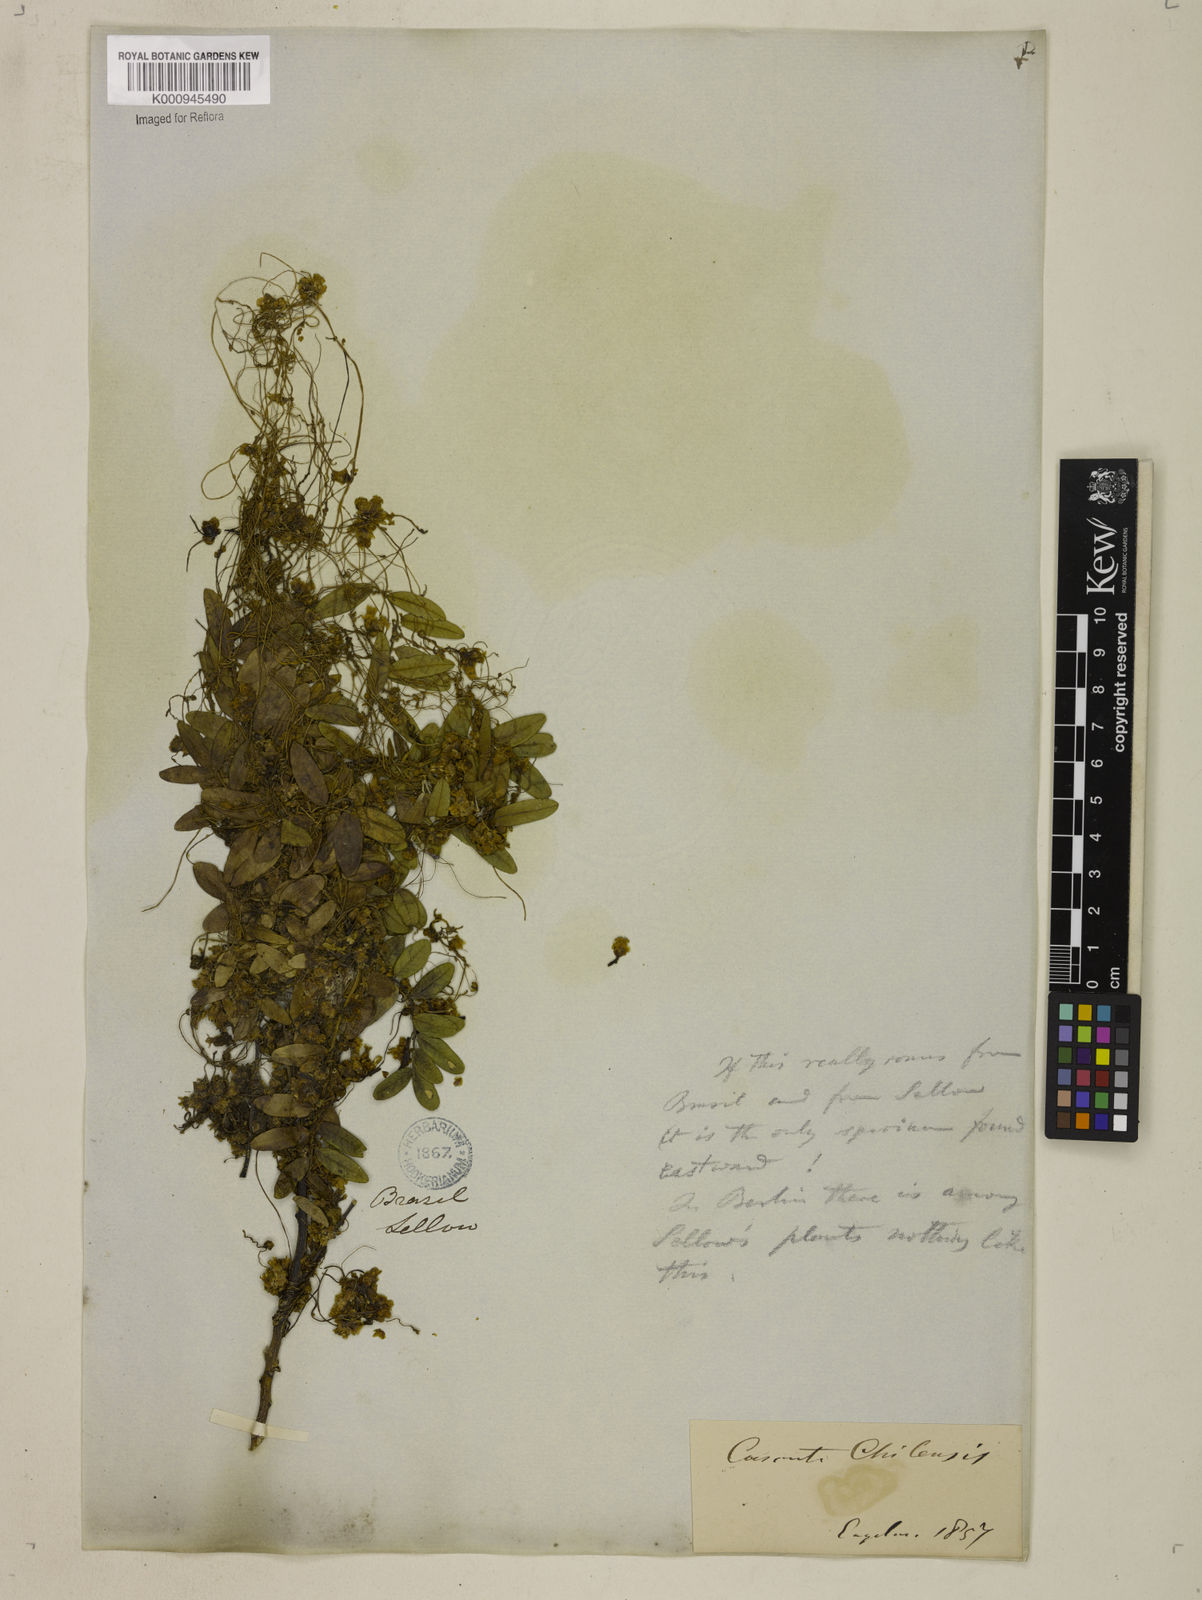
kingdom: Plantae
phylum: Tracheophyta
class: Magnoliopsida
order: Solanales
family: Convolvulaceae
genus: Cuscuta
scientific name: Cuscuta racemosa
